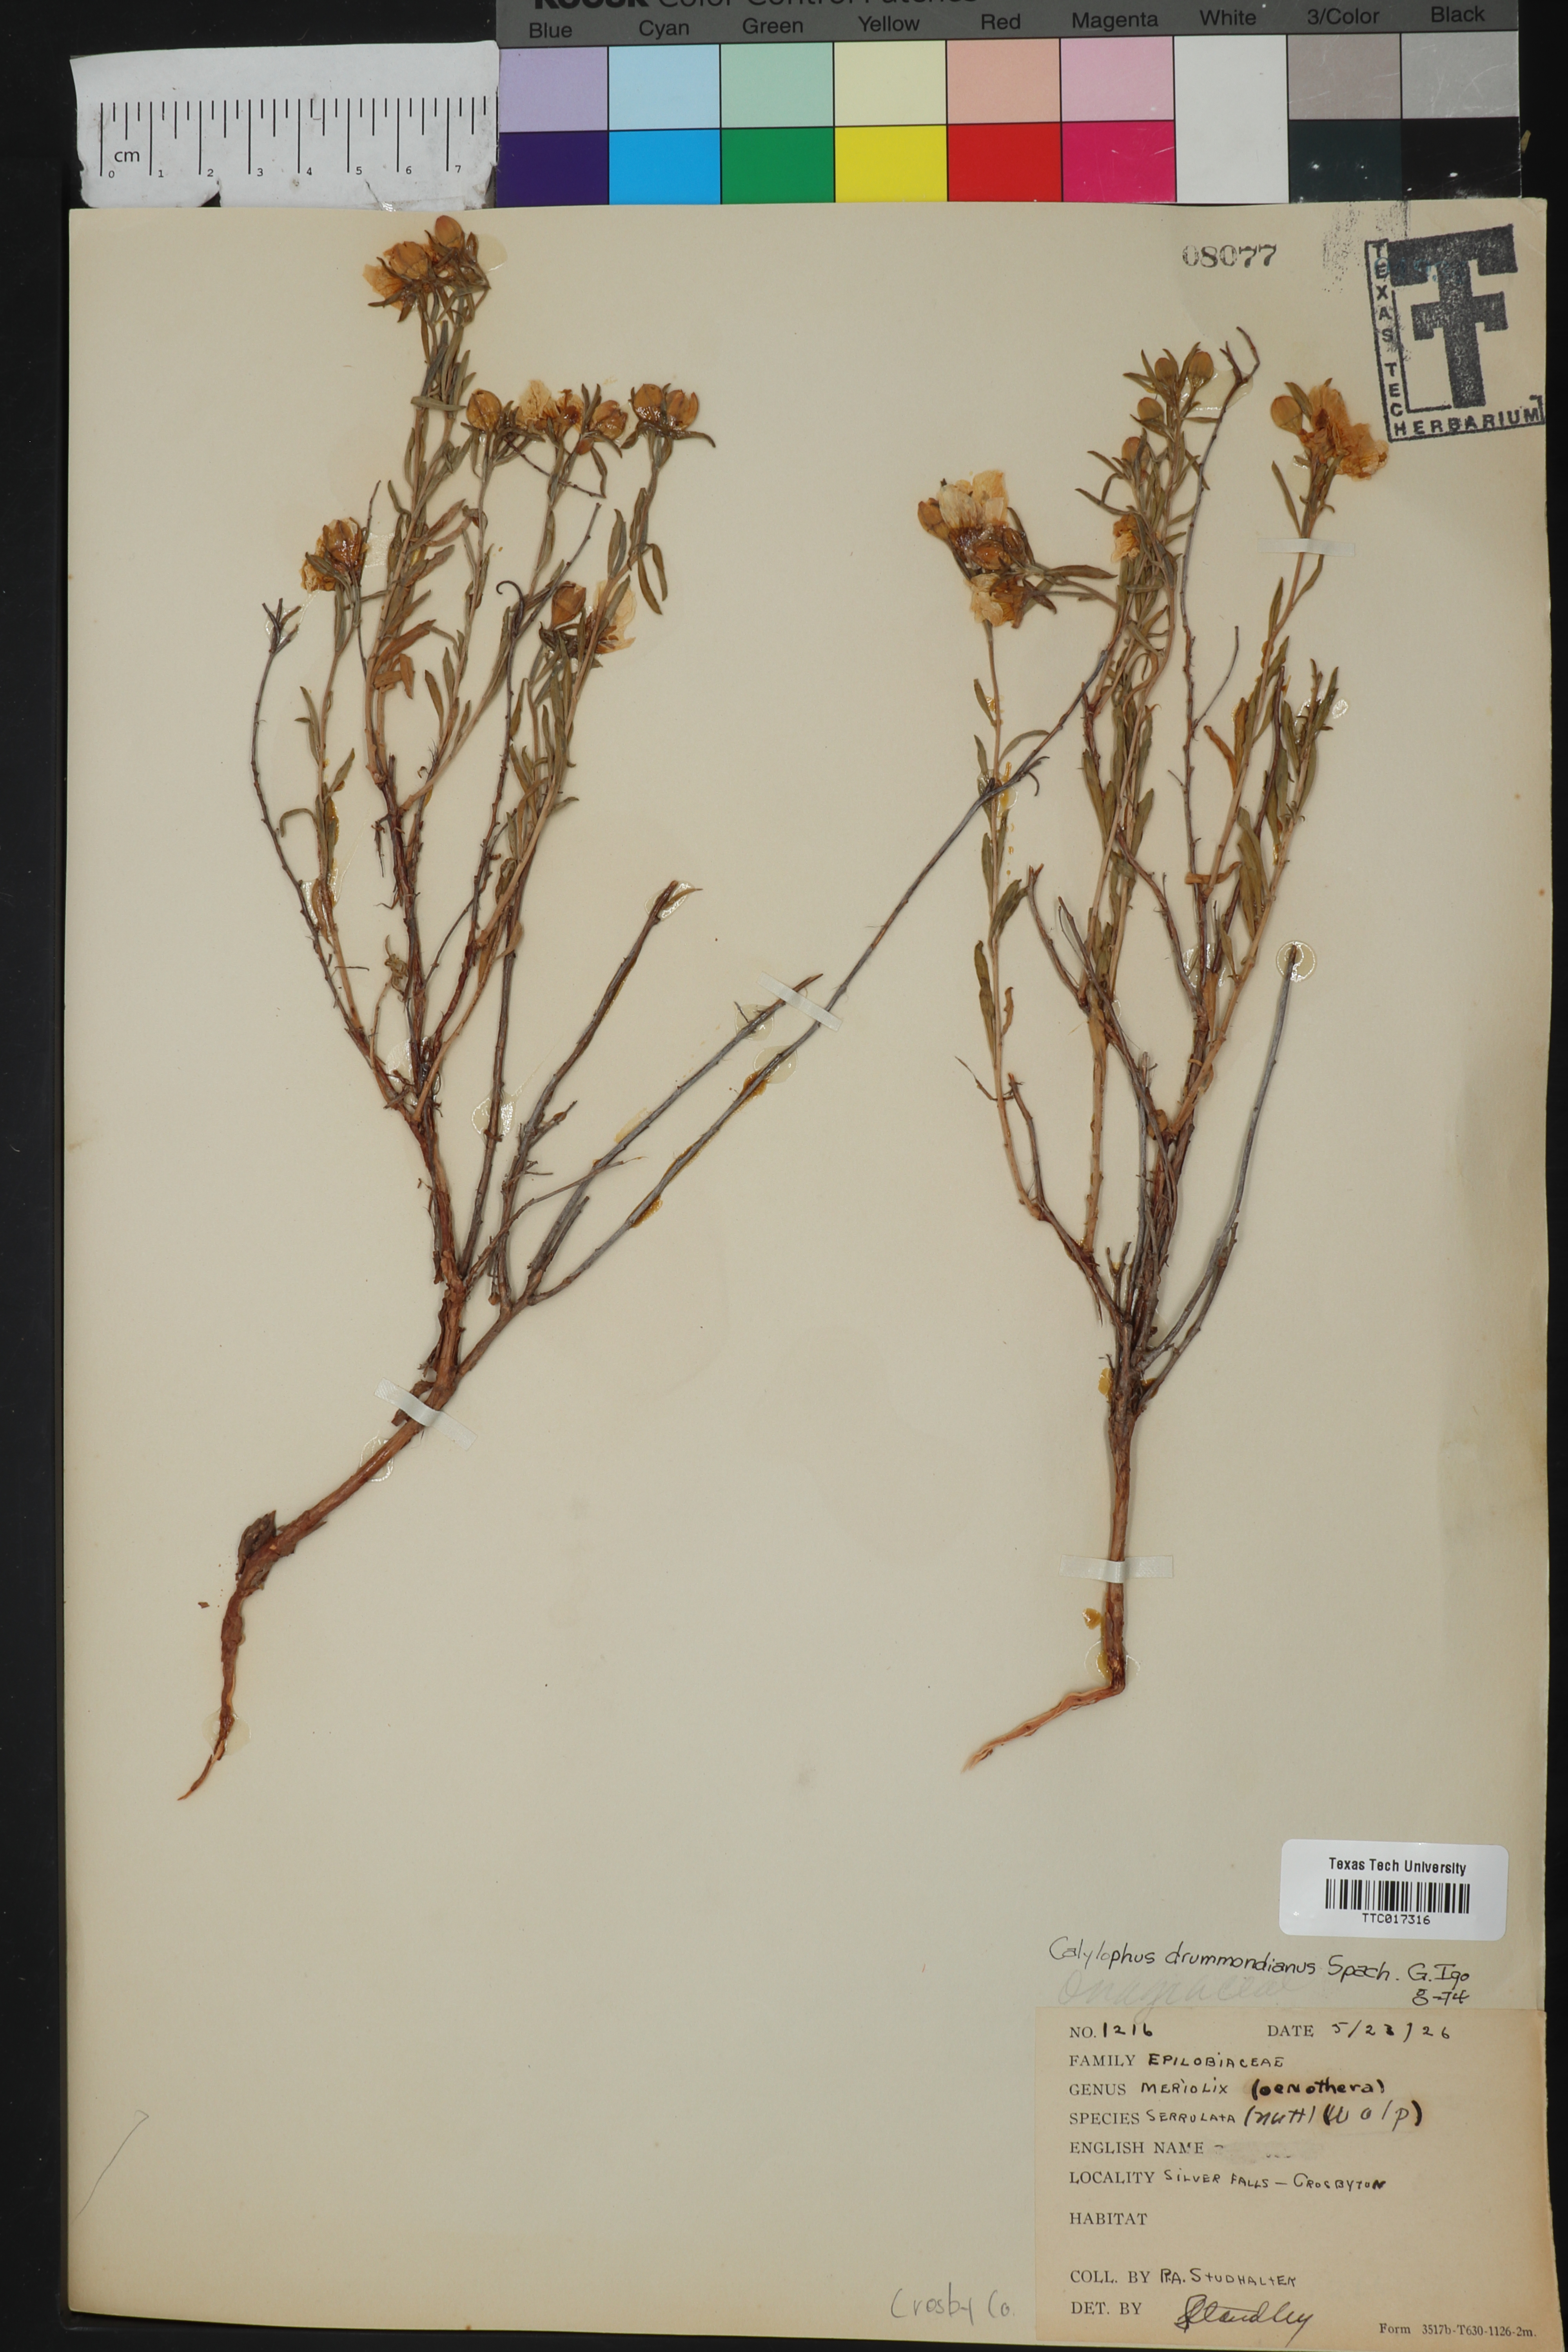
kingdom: Plantae
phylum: Tracheophyta
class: Magnoliopsida
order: Myrtales
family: Onagraceae
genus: Oenothera
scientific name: Oenothera serrulata
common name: Half-shrub calylophus
